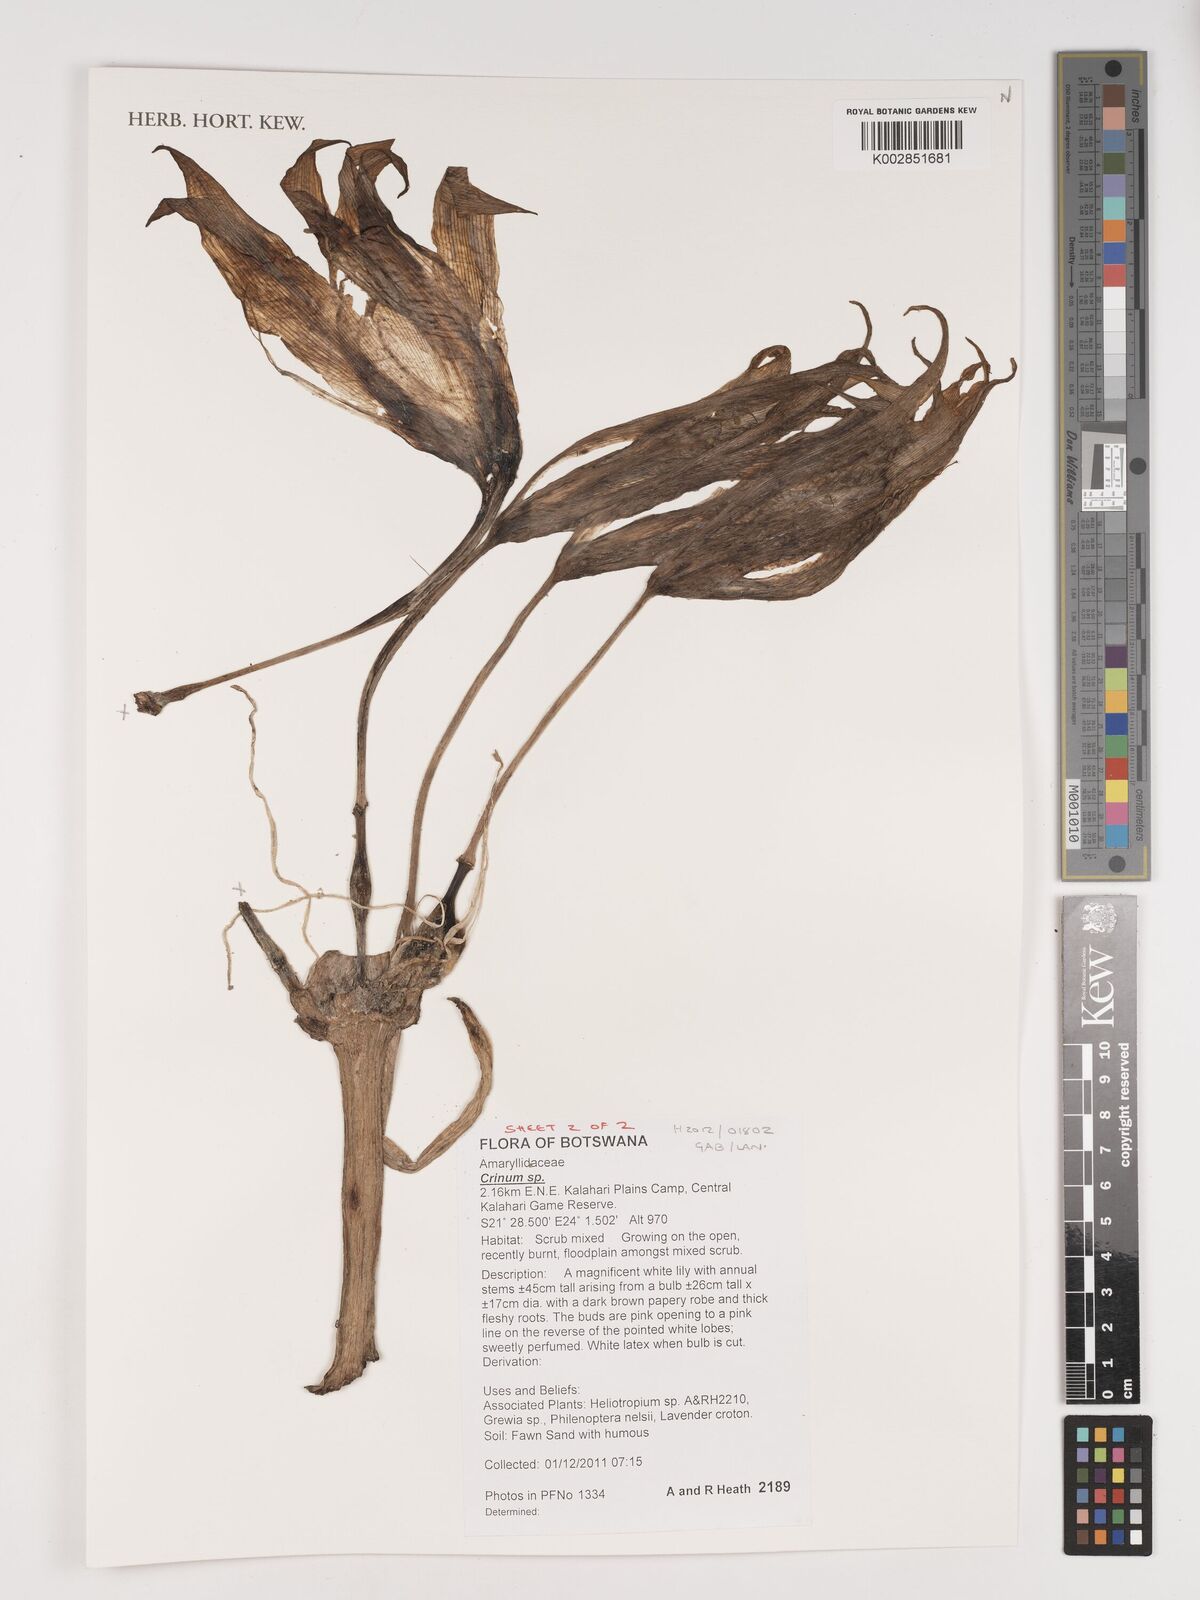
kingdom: Plantae
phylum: Tracheophyta
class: Liliopsida
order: Asparagales
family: Amaryllidaceae
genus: Crinum
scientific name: Crinum
